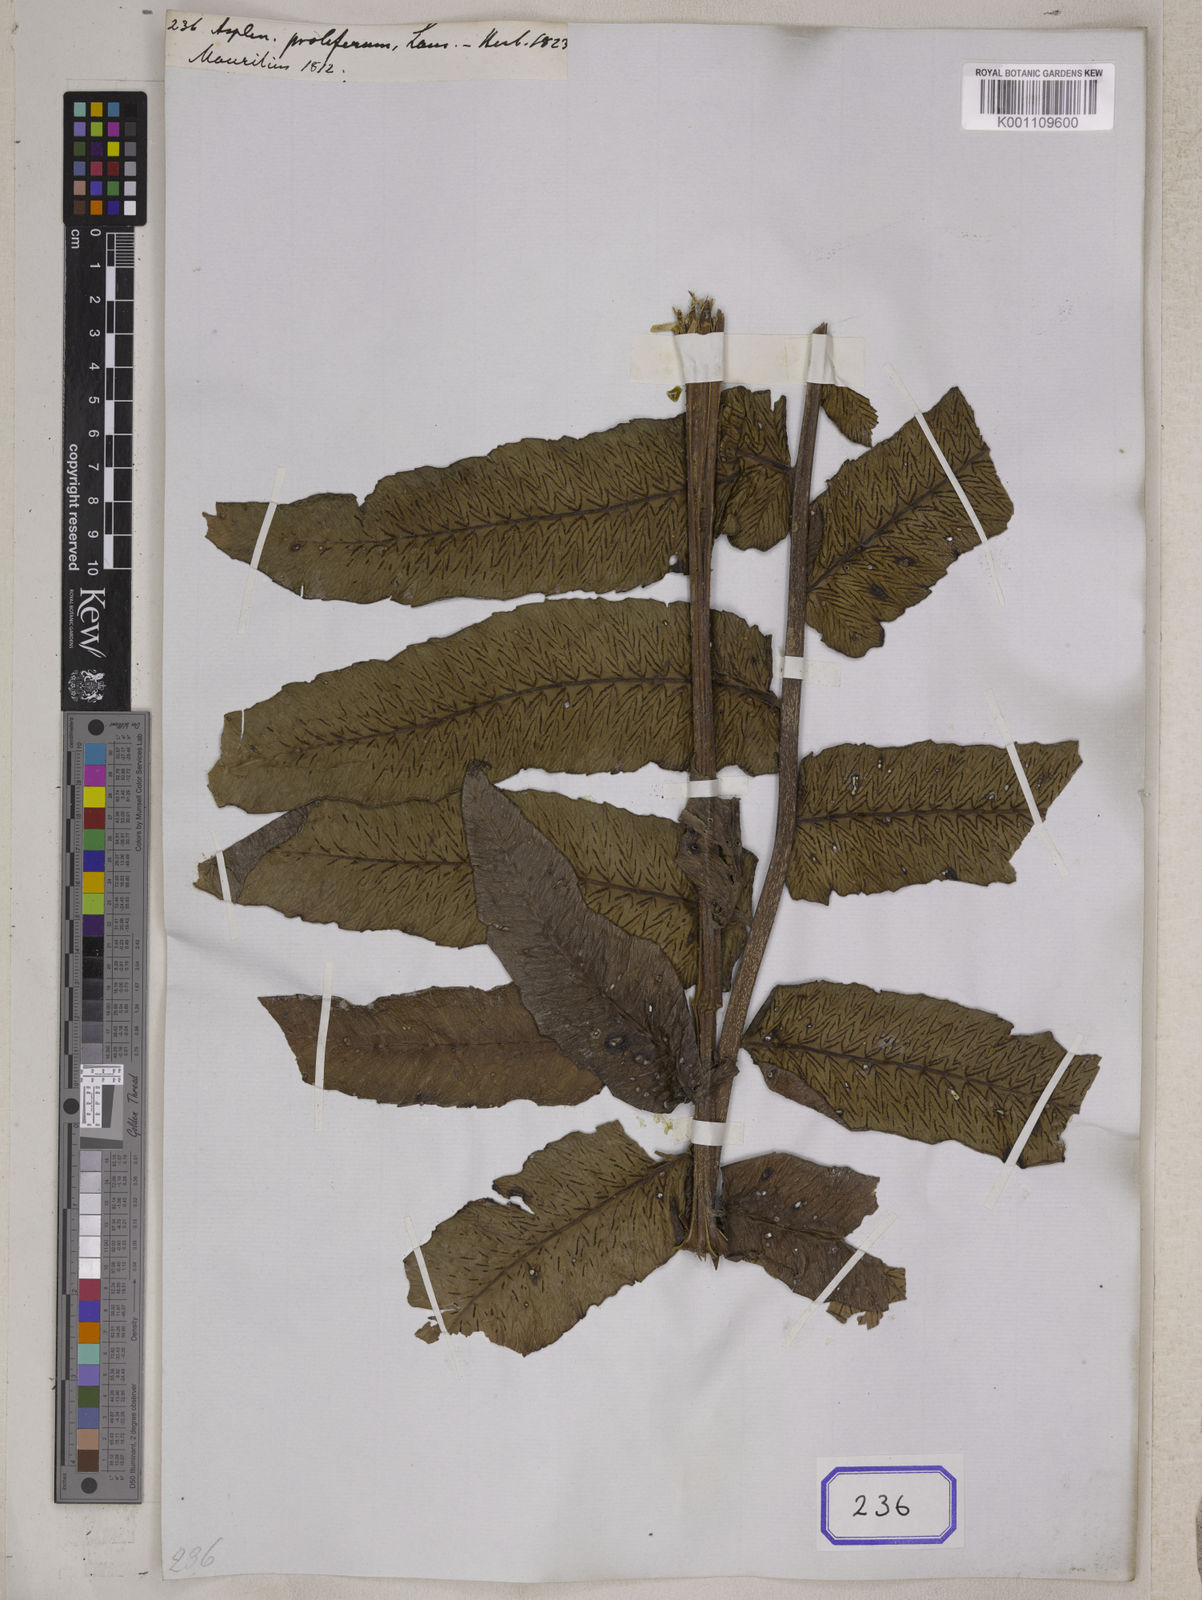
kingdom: Plantae
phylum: Tracheophyta
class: Polypodiopsida
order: Polypodiales
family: Athyriaceae
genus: Diplazium
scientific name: Diplazium proliferum
